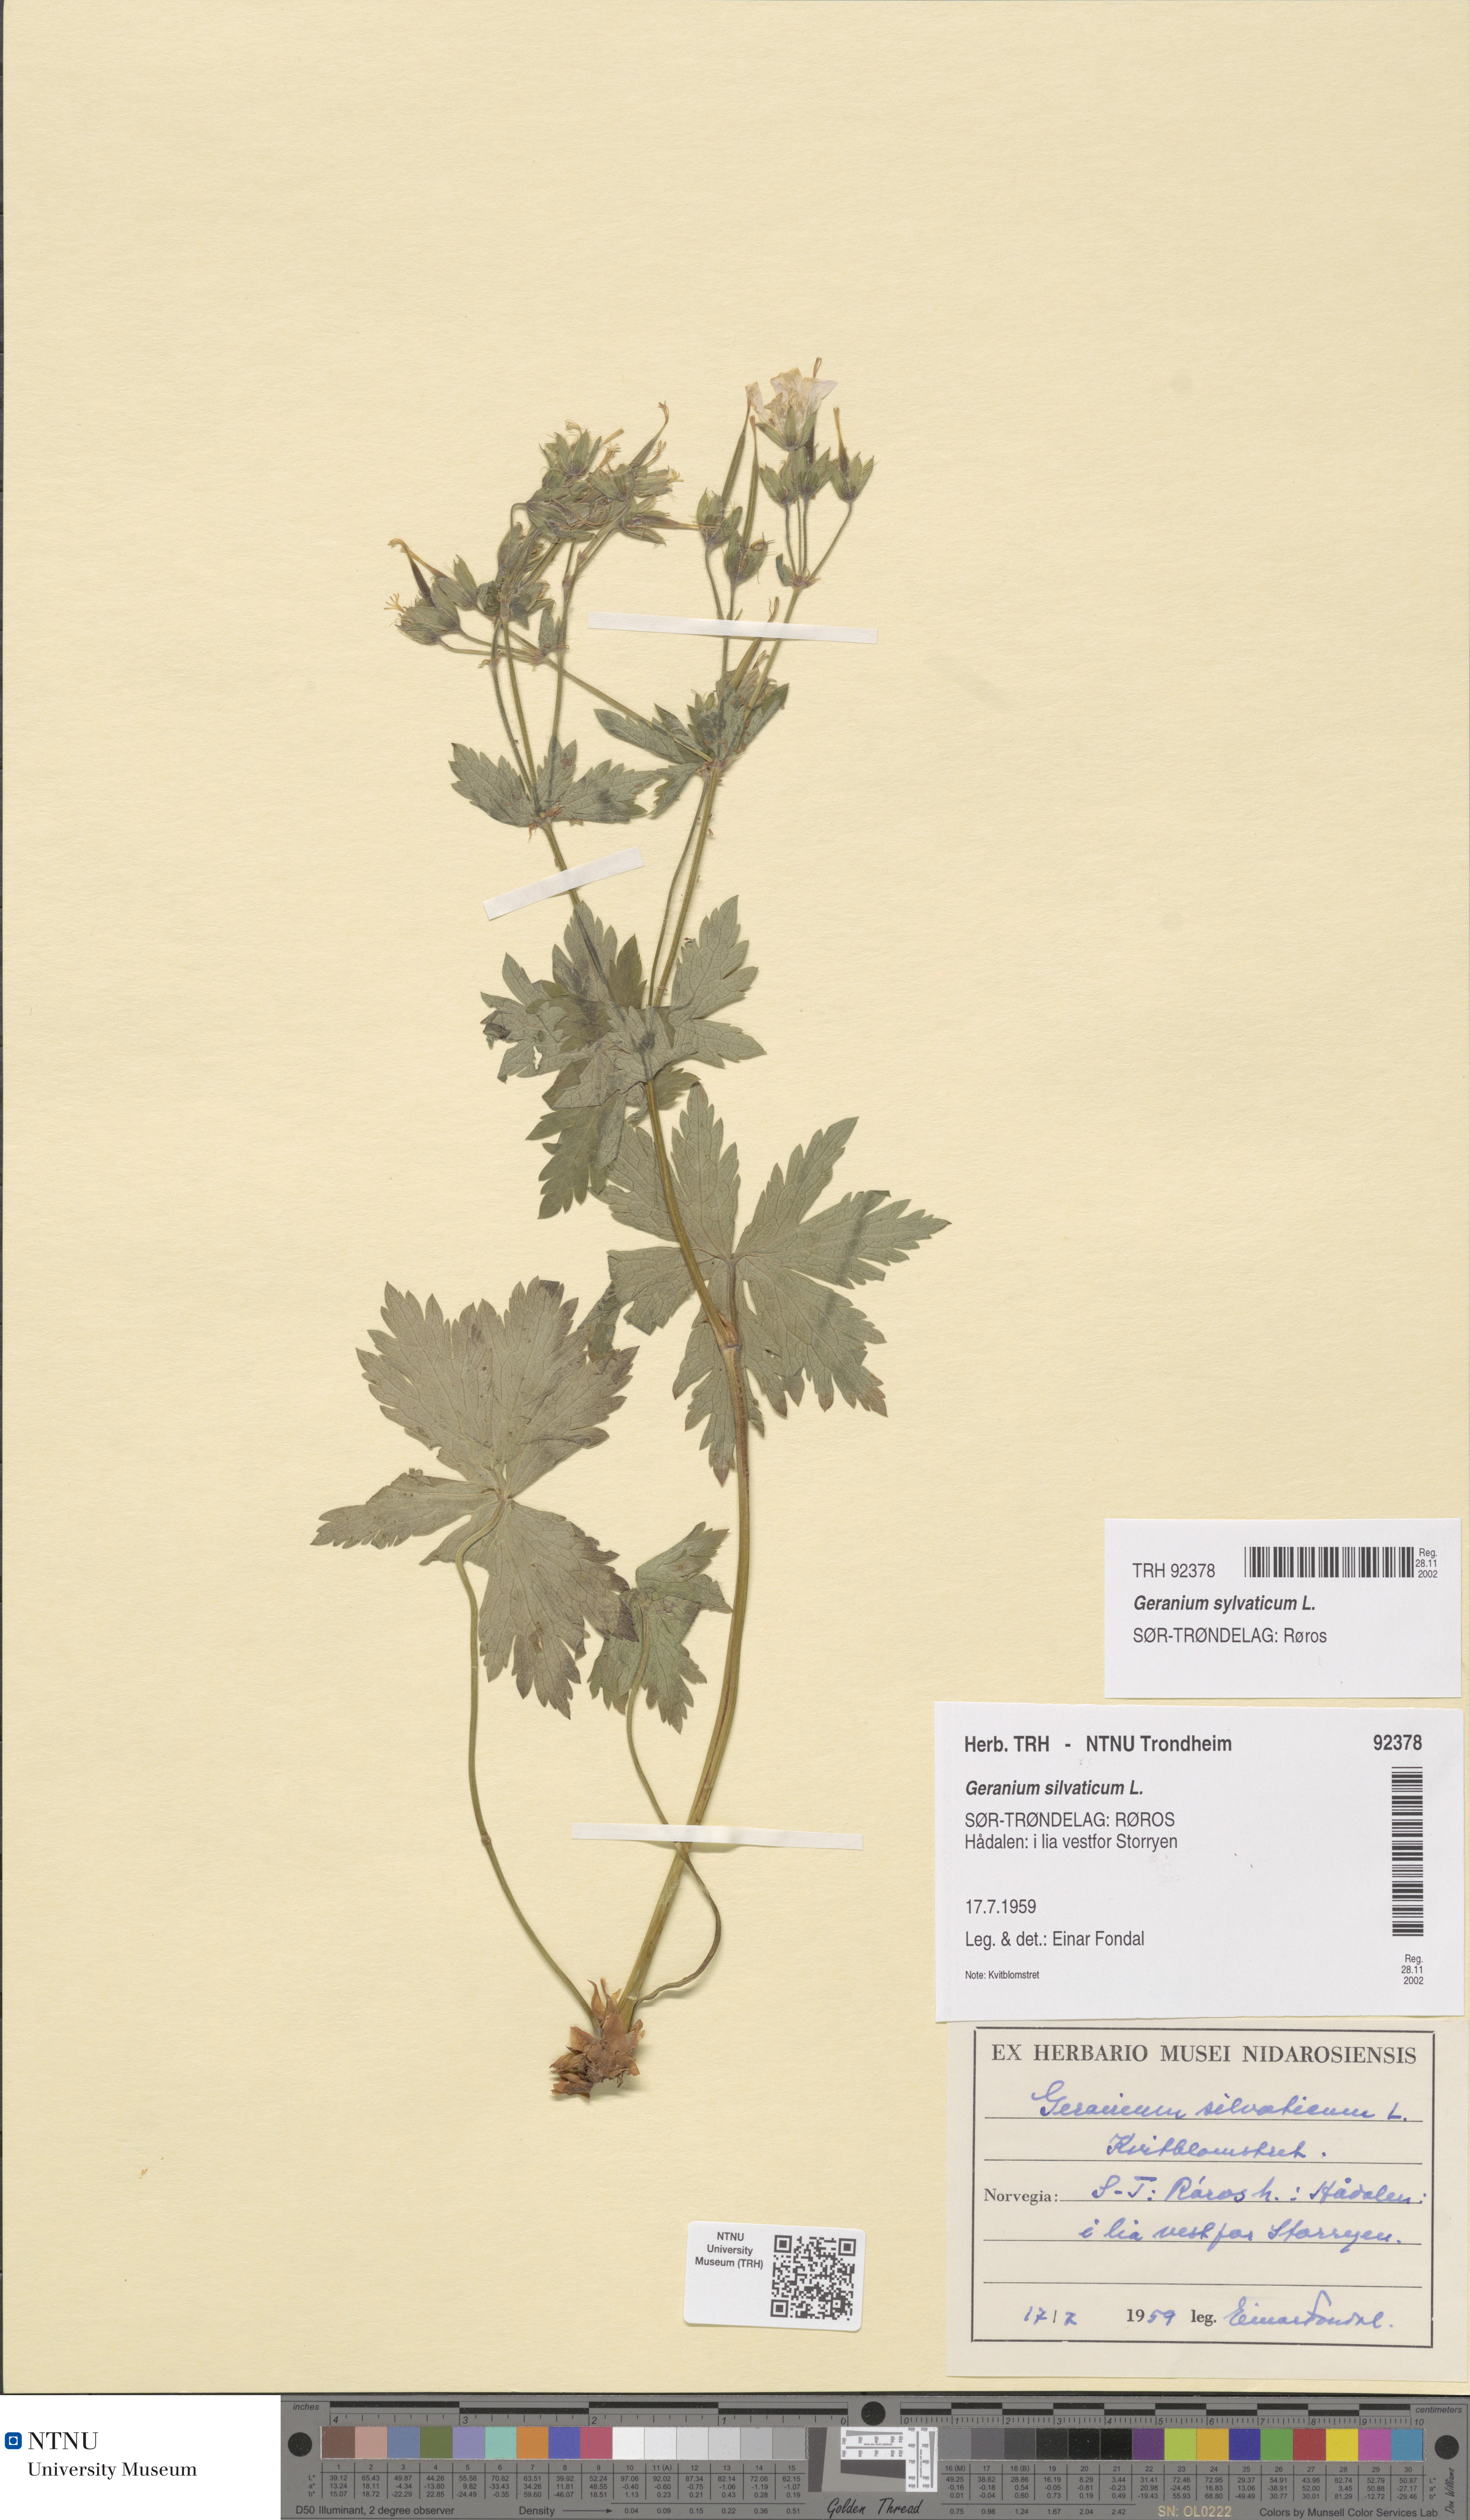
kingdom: Plantae
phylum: Tracheophyta
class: Magnoliopsida
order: Geraniales
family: Geraniaceae
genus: Geranium
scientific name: Geranium sylvaticum
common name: Wood crane's-bill
